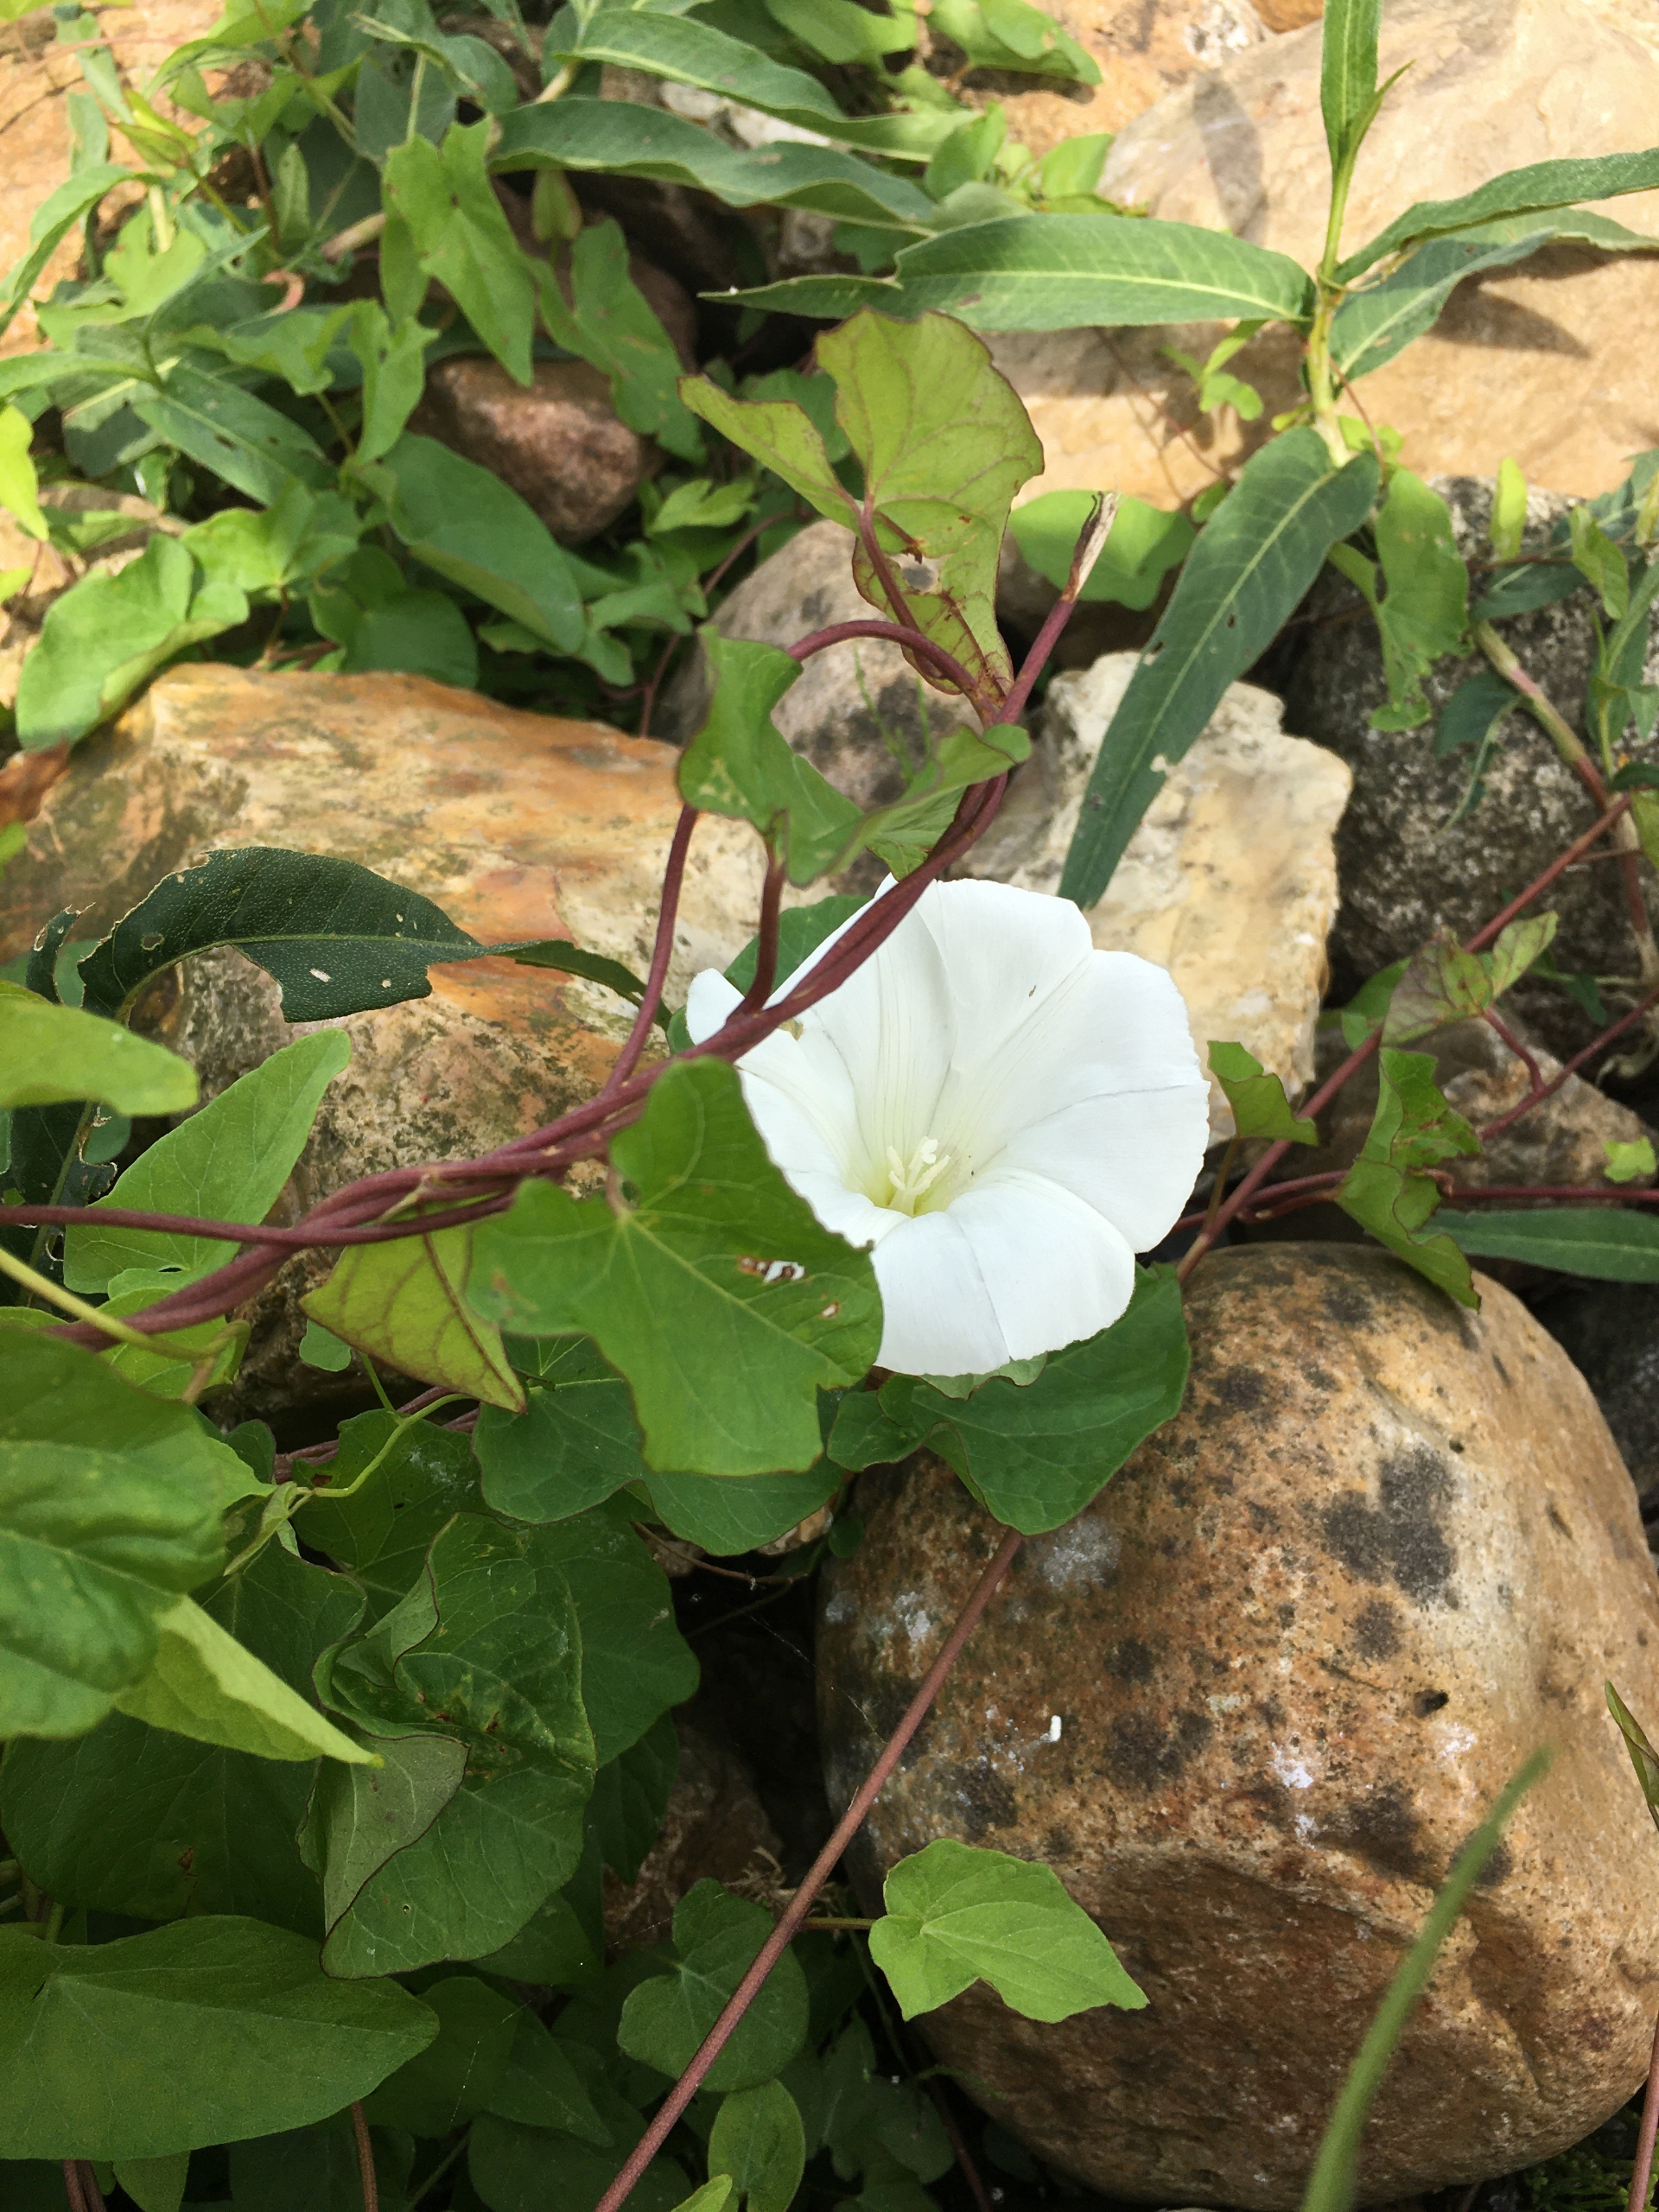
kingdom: Plantae
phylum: Tracheophyta
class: Magnoliopsida
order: Solanales
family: Convolvulaceae
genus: Calystegia
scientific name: Calystegia sepium
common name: Gærde-snerle
